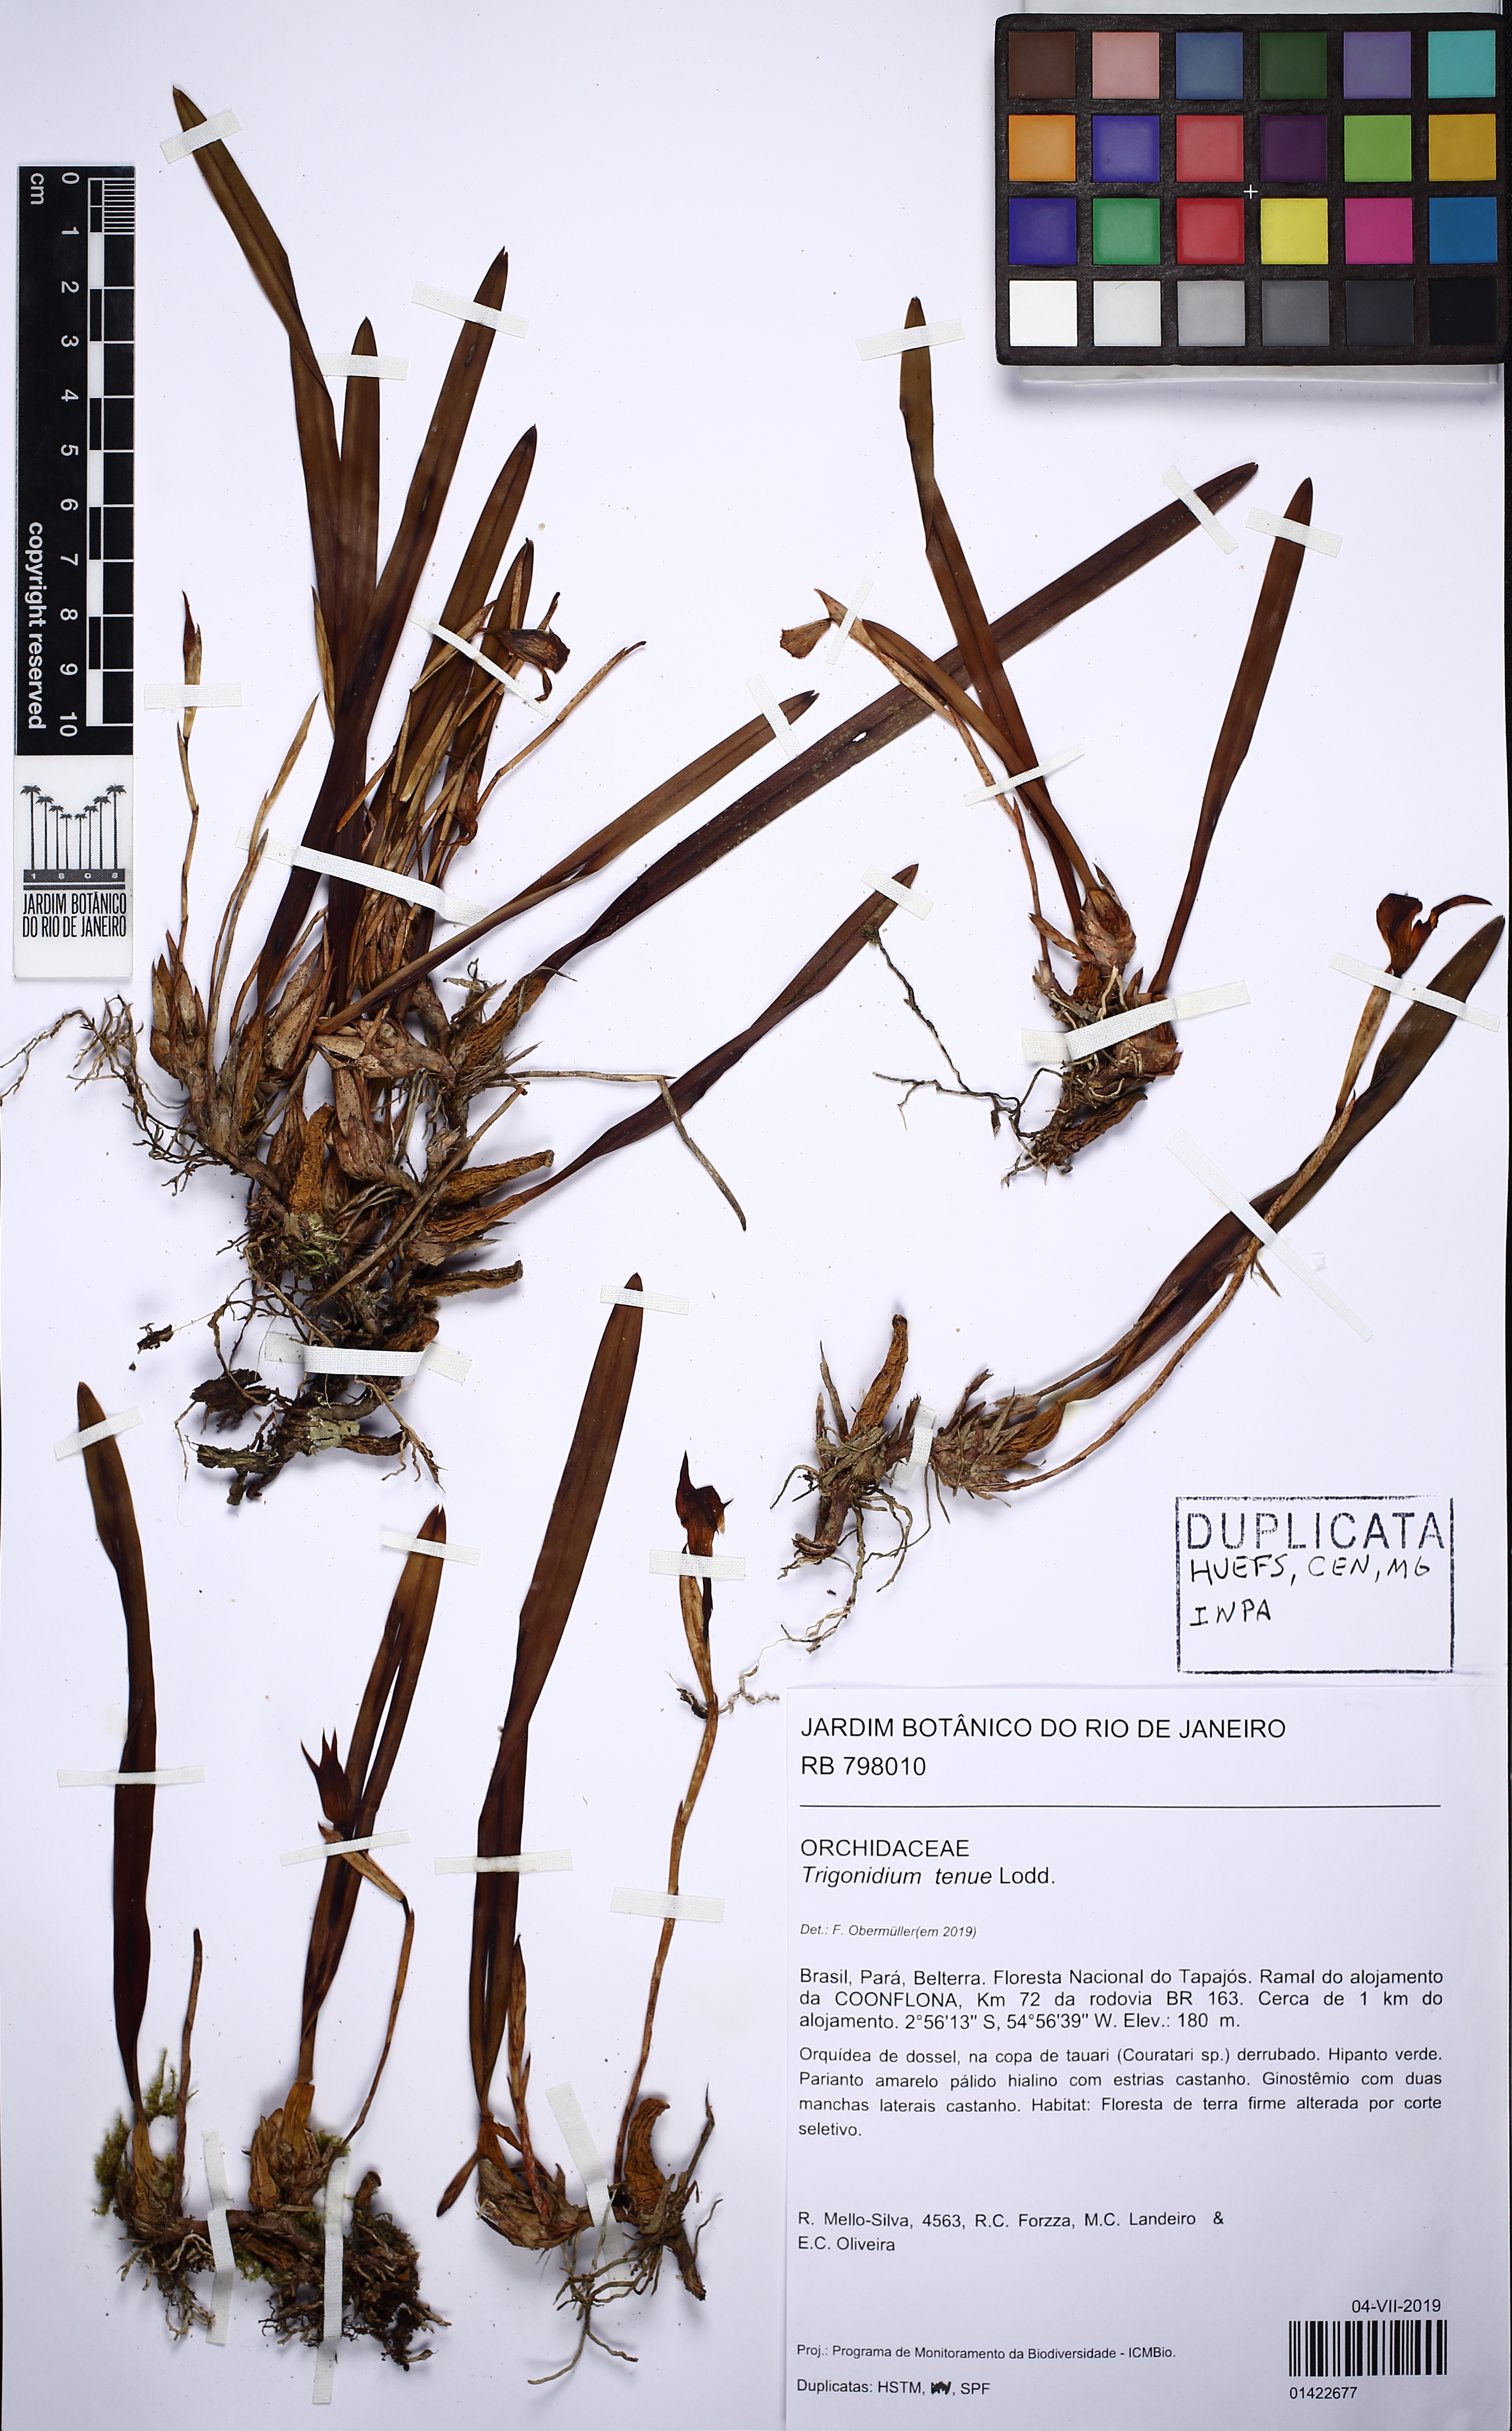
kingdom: Plantae
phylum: Tracheophyta
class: Liliopsida
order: Asparagales
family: Orchidaceae
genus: Maxillaria
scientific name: Maxillaria subrepens
